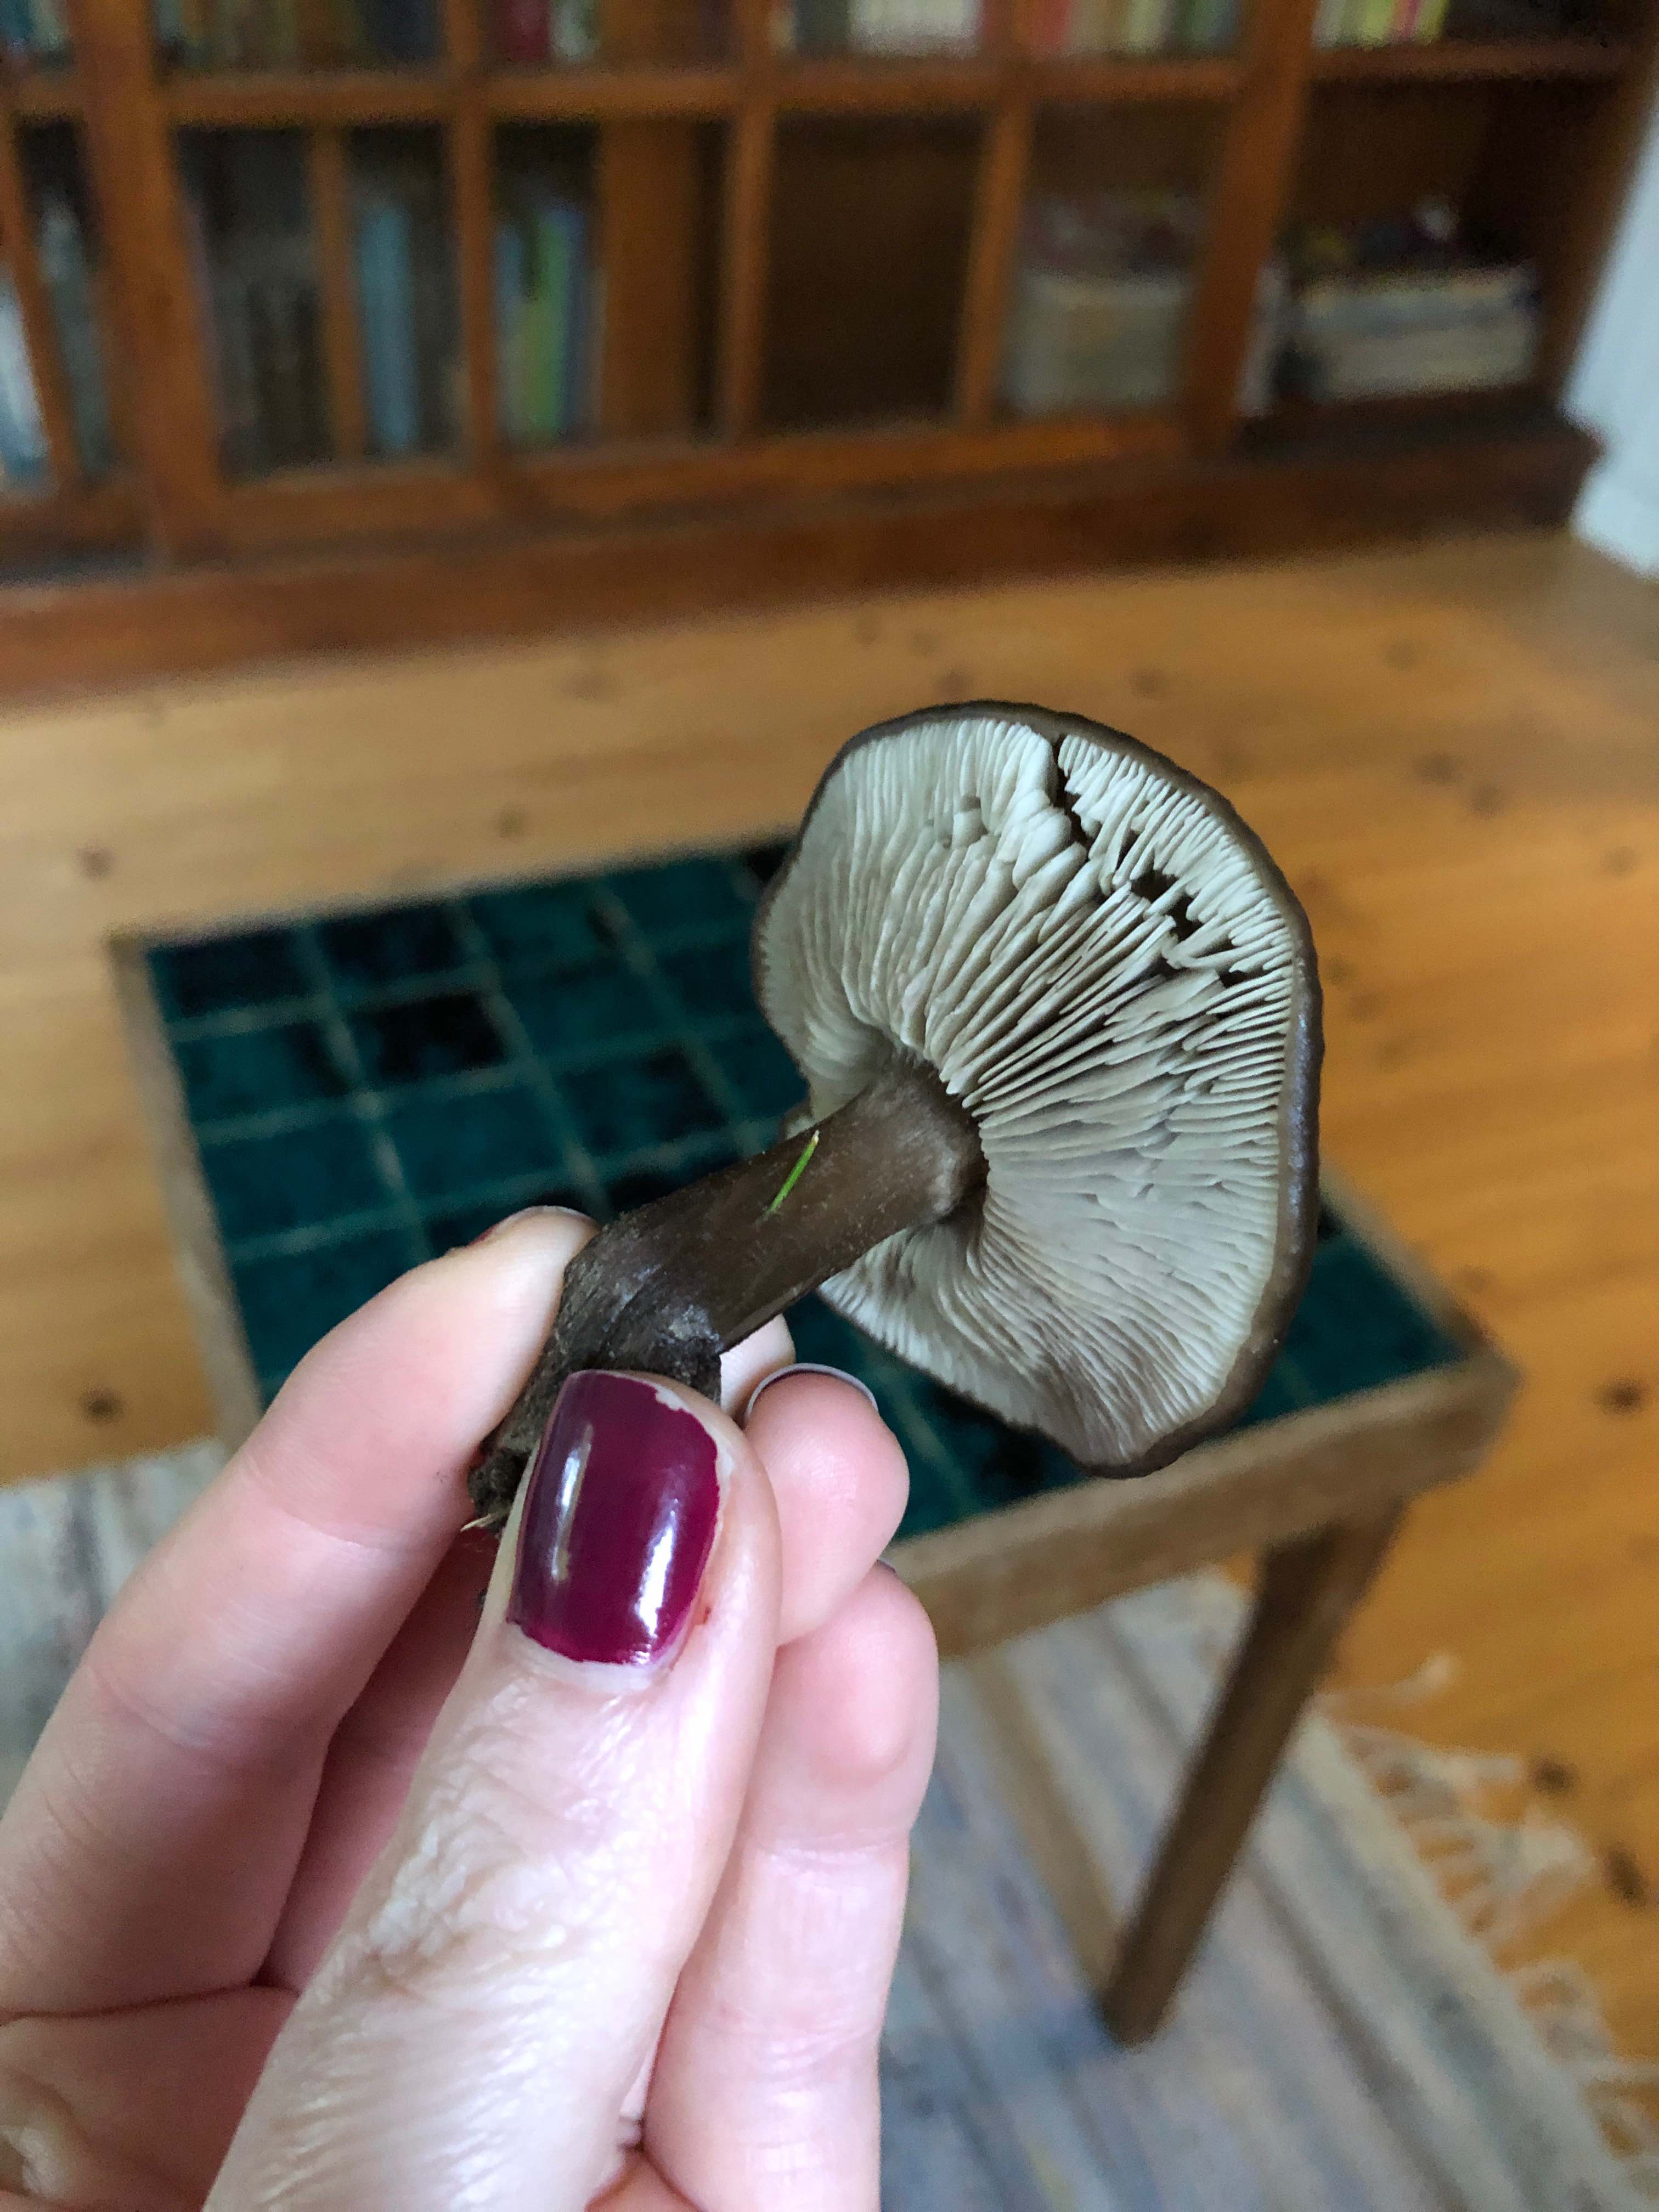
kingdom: Fungi
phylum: Basidiomycota
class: Agaricomycetes
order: Agaricales
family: Tricholomataceae
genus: Melanoleuca
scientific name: Melanoleuca
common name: munkehat
